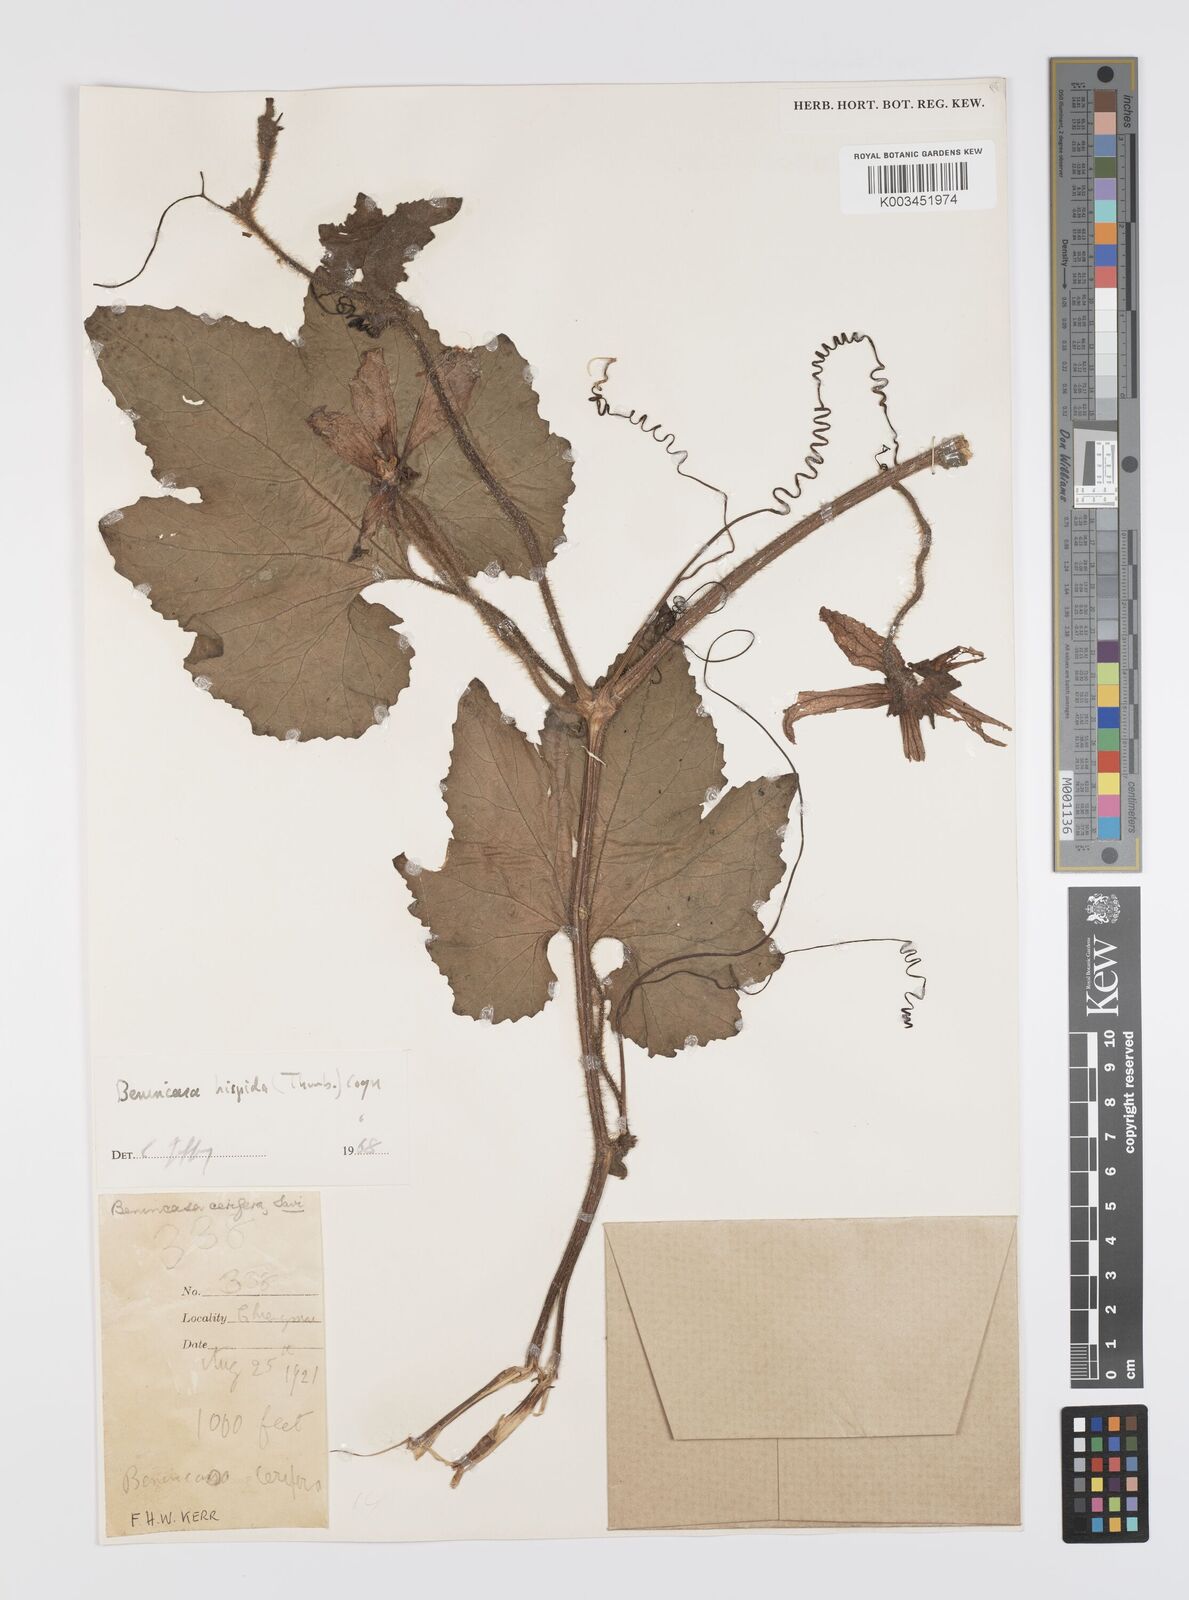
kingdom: Plantae
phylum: Tracheophyta
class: Magnoliopsida
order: Cucurbitales
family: Cucurbitaceae
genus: Benincasa
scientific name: Benincasa hispida
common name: Chinese-watermelon
